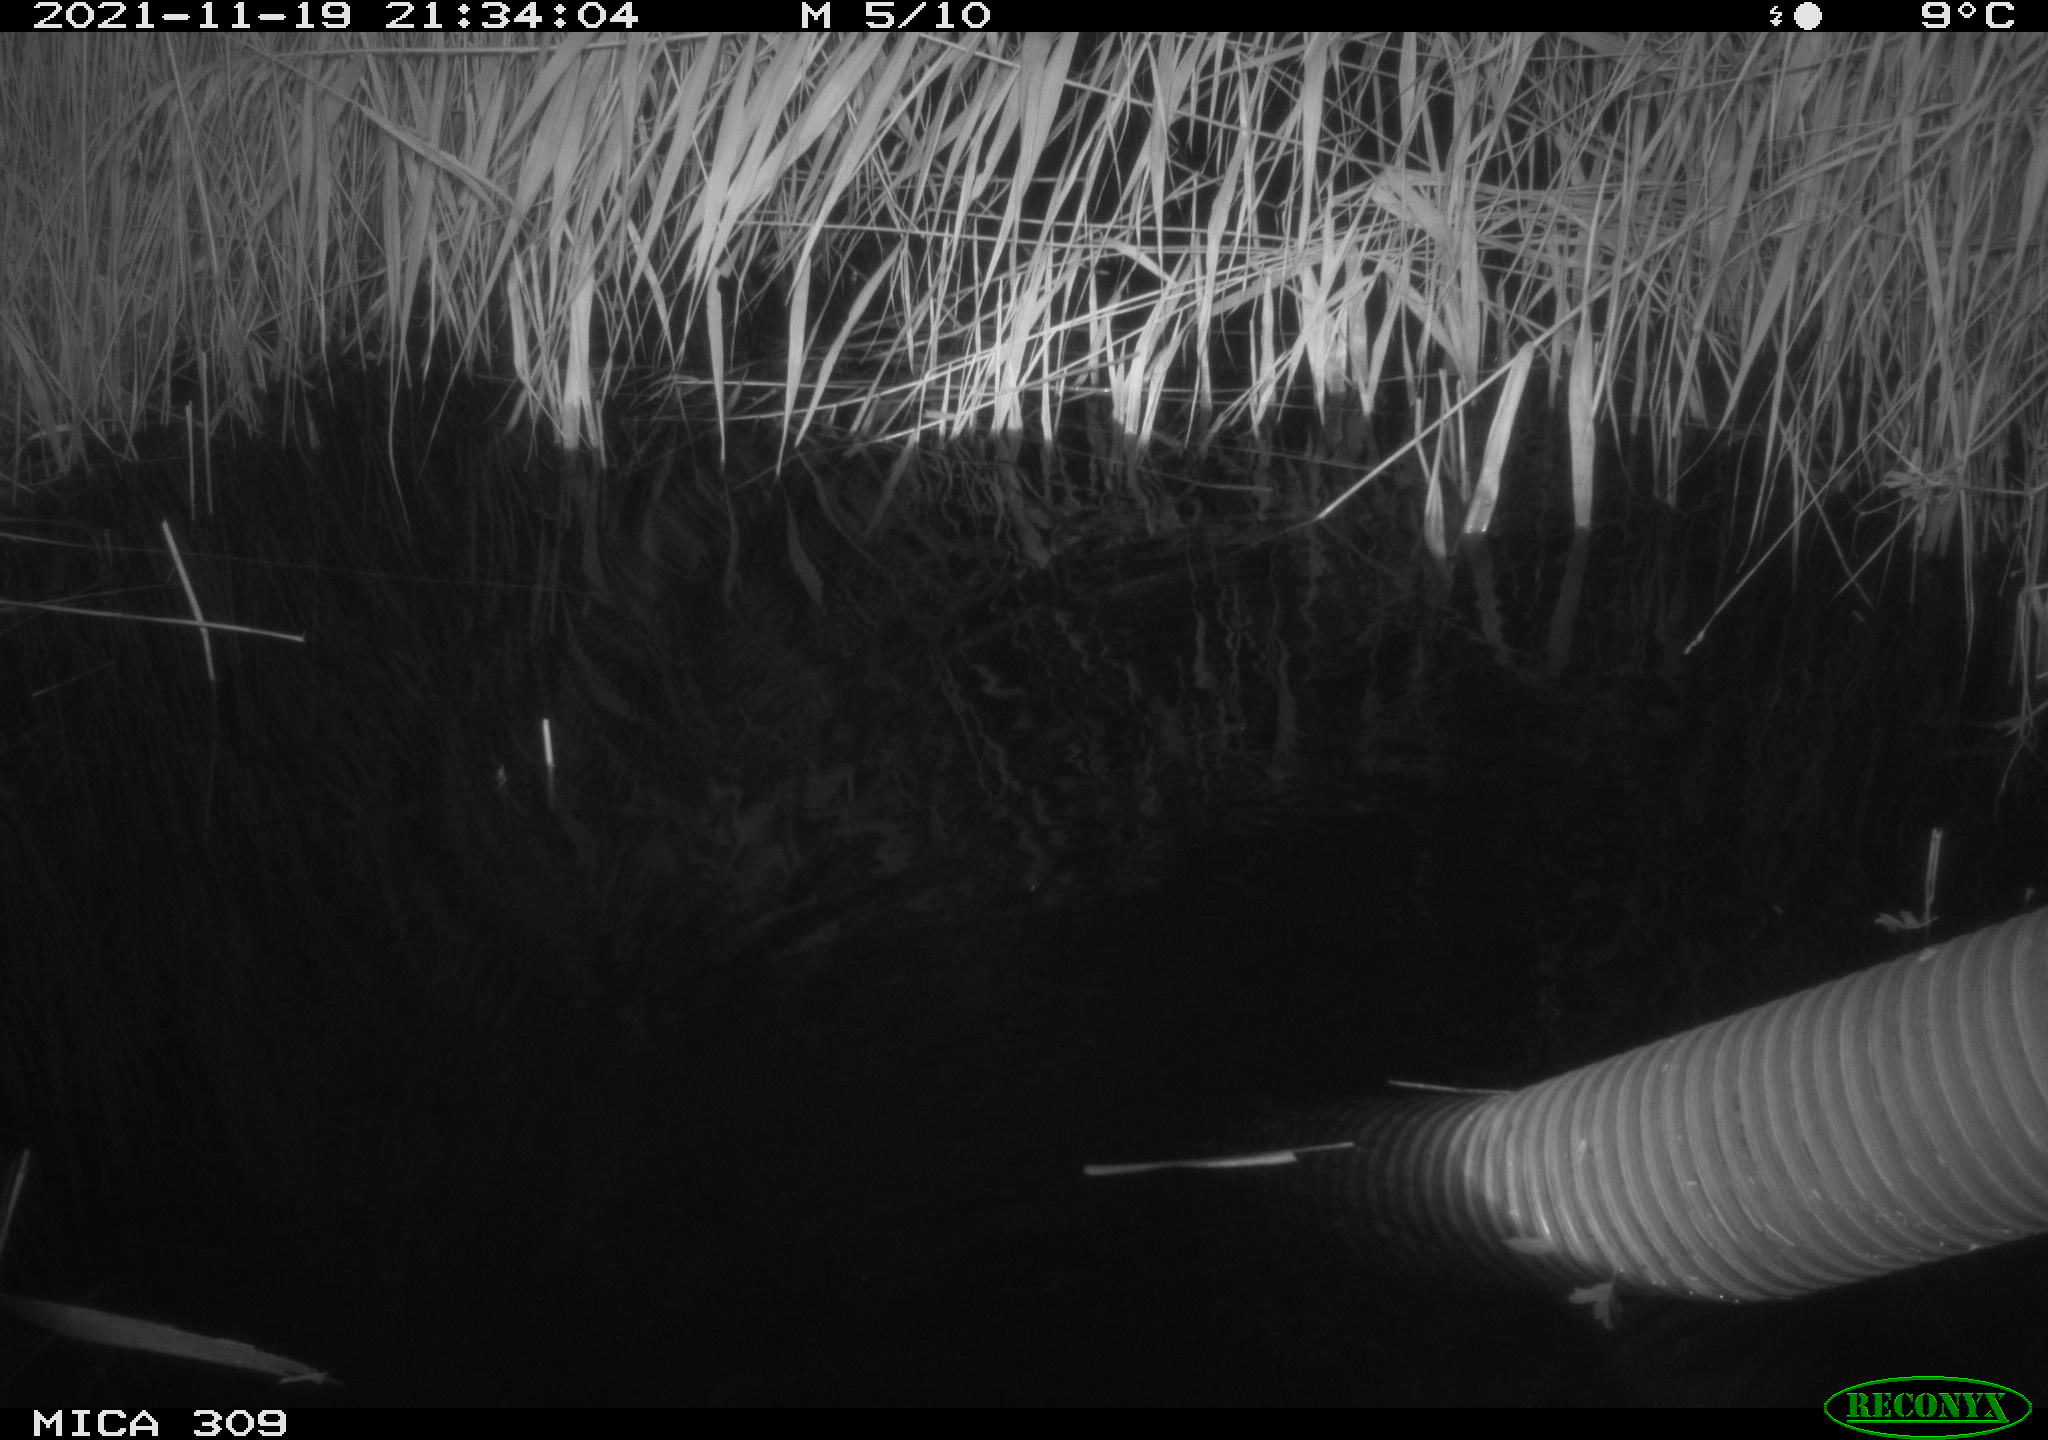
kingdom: Animalia
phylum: Chordata
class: Mammalia
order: Rodentia
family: Muridae
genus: Rattus
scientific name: Rattus norvegicus
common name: Brown rat
